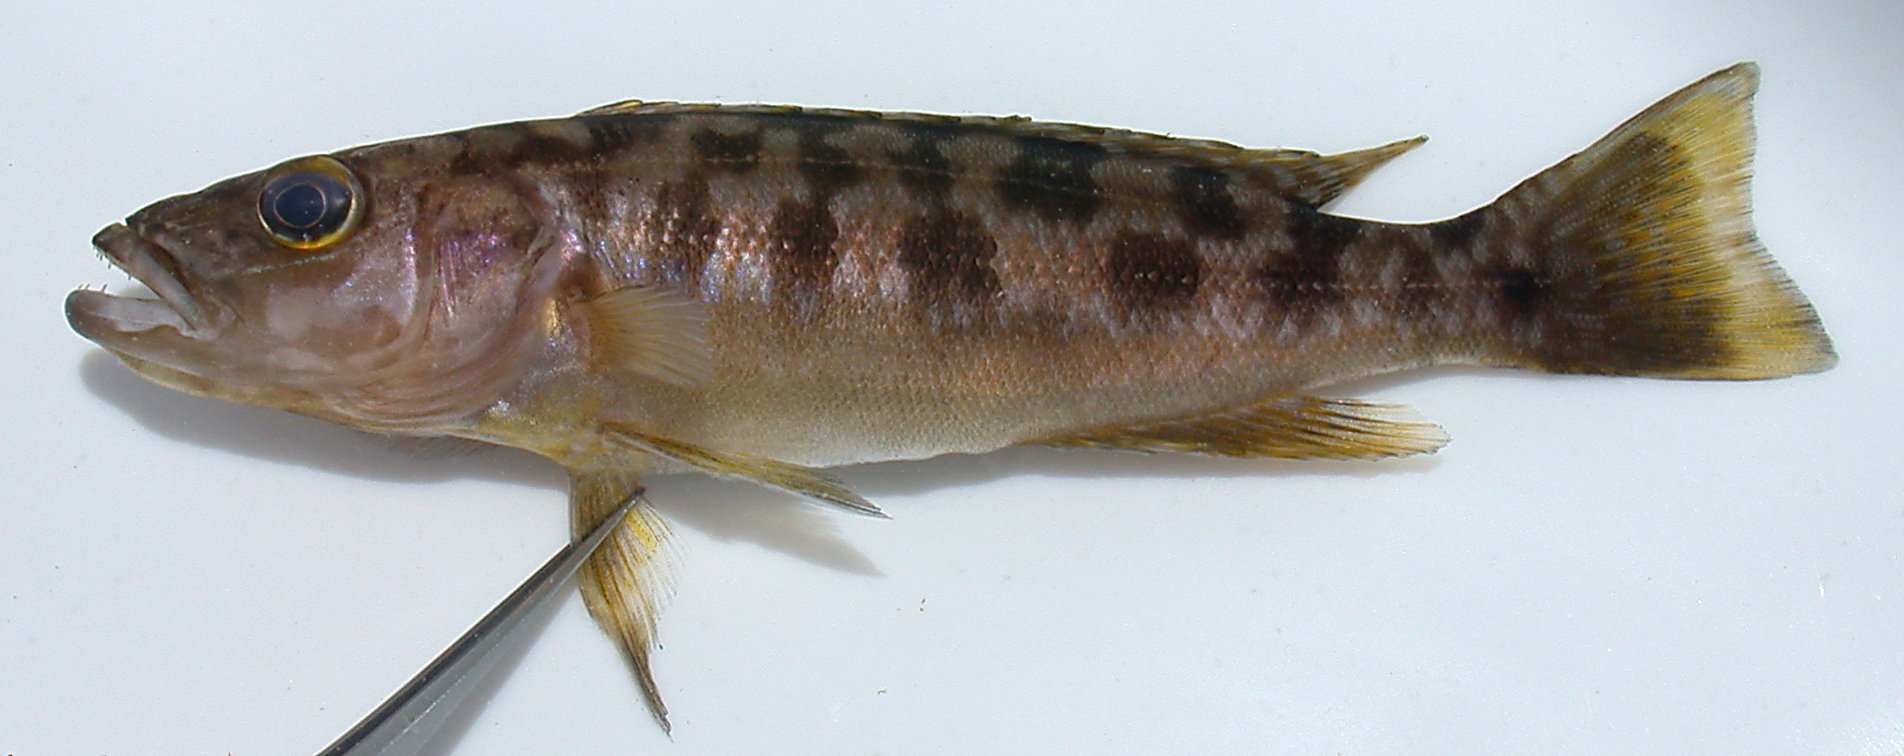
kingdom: Animalia
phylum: Chordata
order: Perciformes
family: Cichlidae
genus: Lepidiolamprologus
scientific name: Lepidiolamprologus
